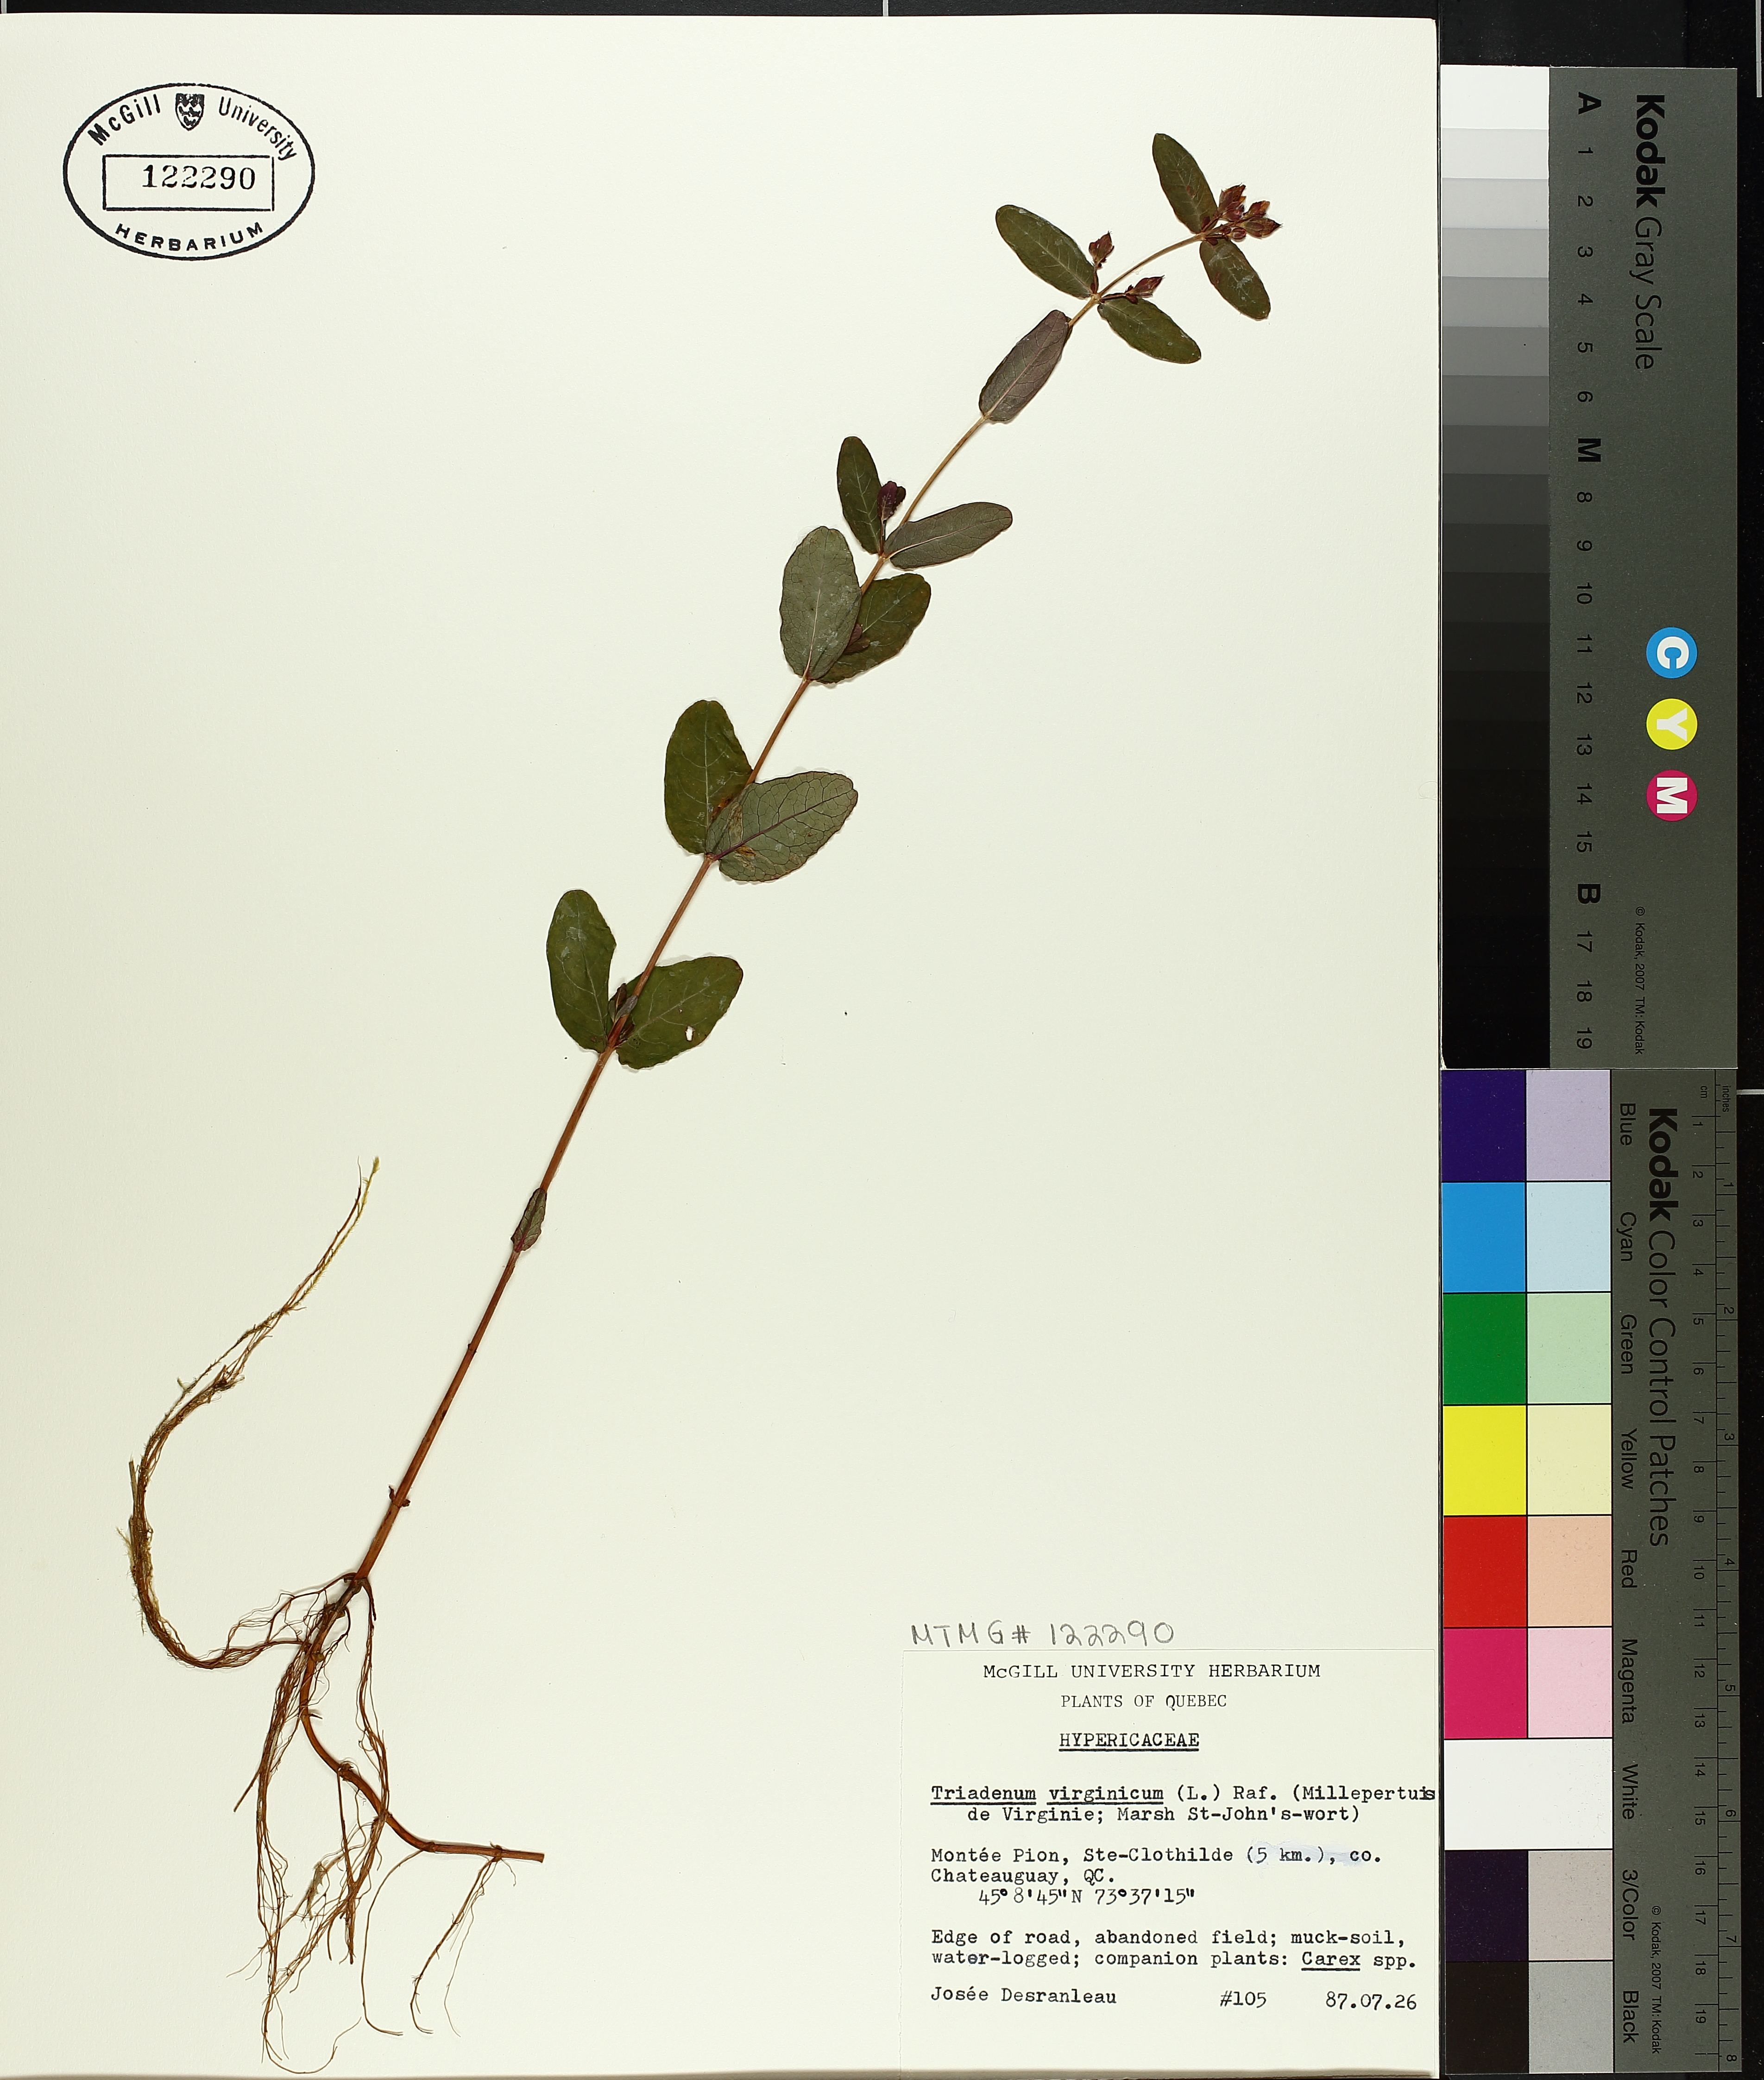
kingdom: Plantae
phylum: Tracheophyta
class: Magnoliopsida
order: Malpighiales
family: Hypericaceae
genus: Triadenum
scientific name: Triadenum fraseri
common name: Fraser's marsh st. johnswort
